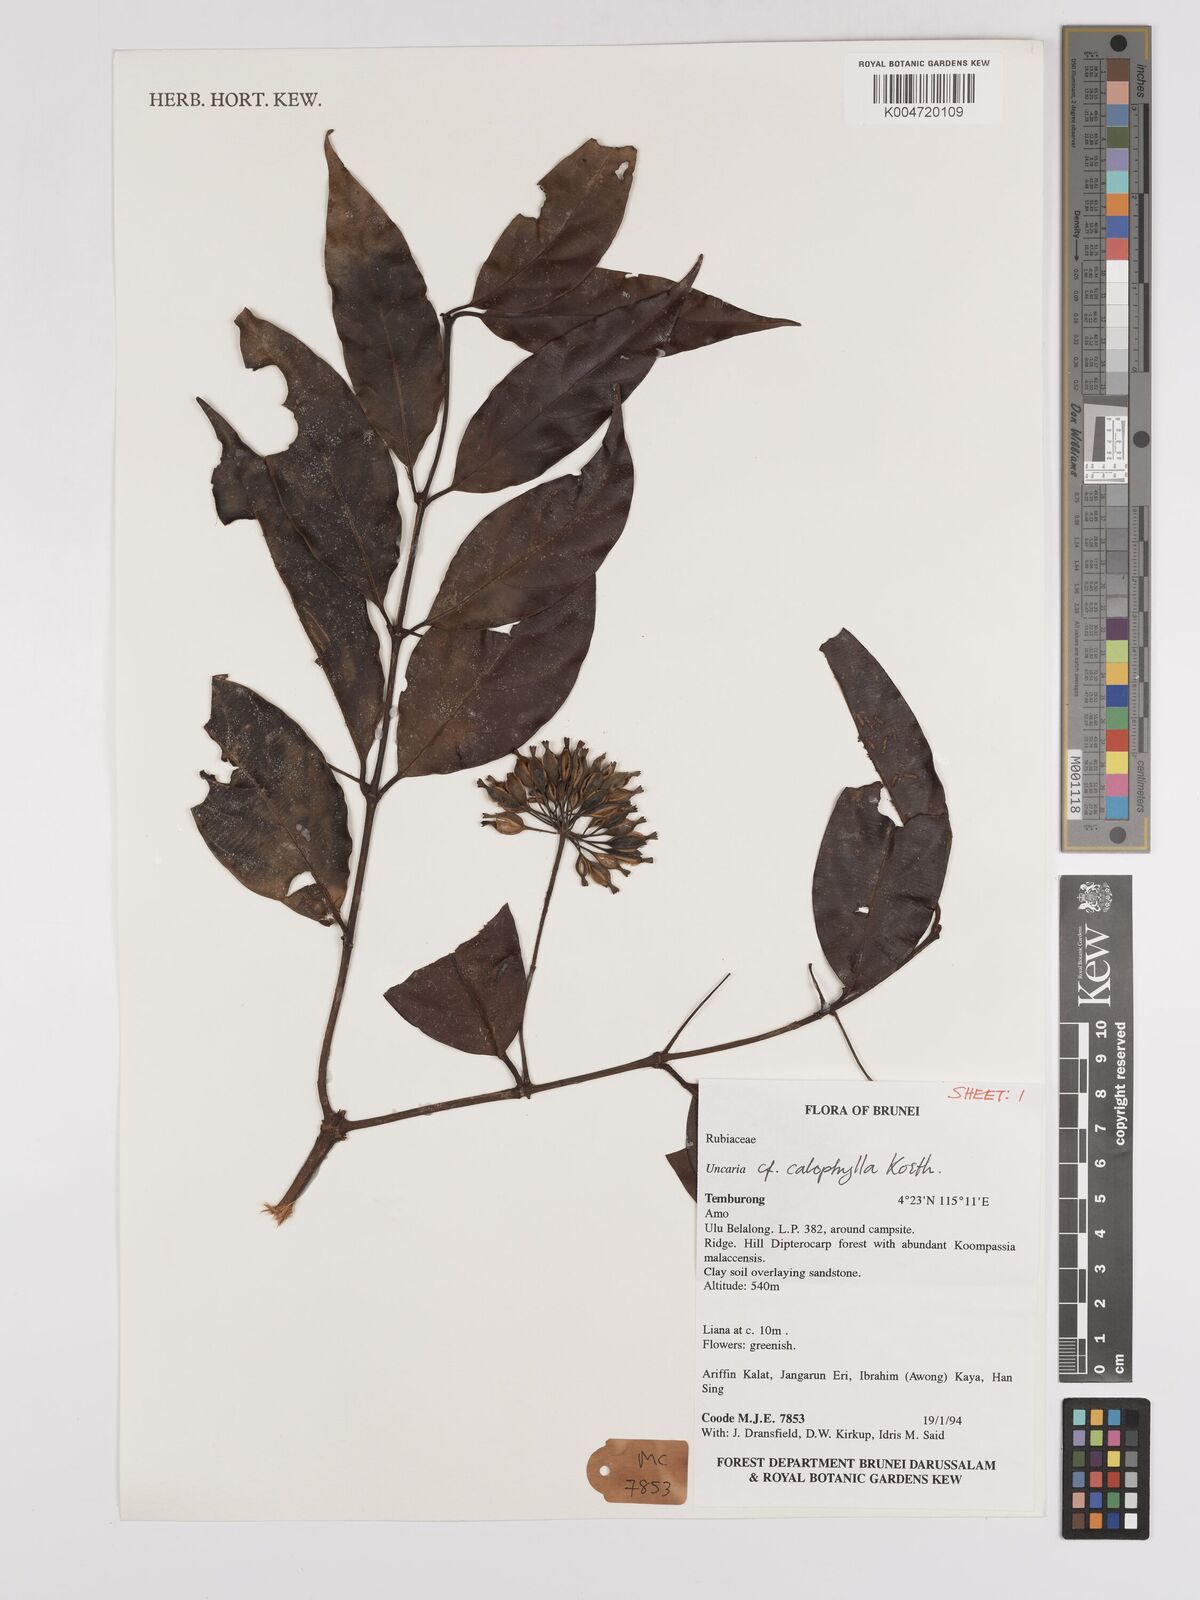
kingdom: Plantae
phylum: Tracheophyta
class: Magnoliopsida
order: Gentianales
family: Rubiaceae
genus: Uncaria
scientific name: Uncaria
